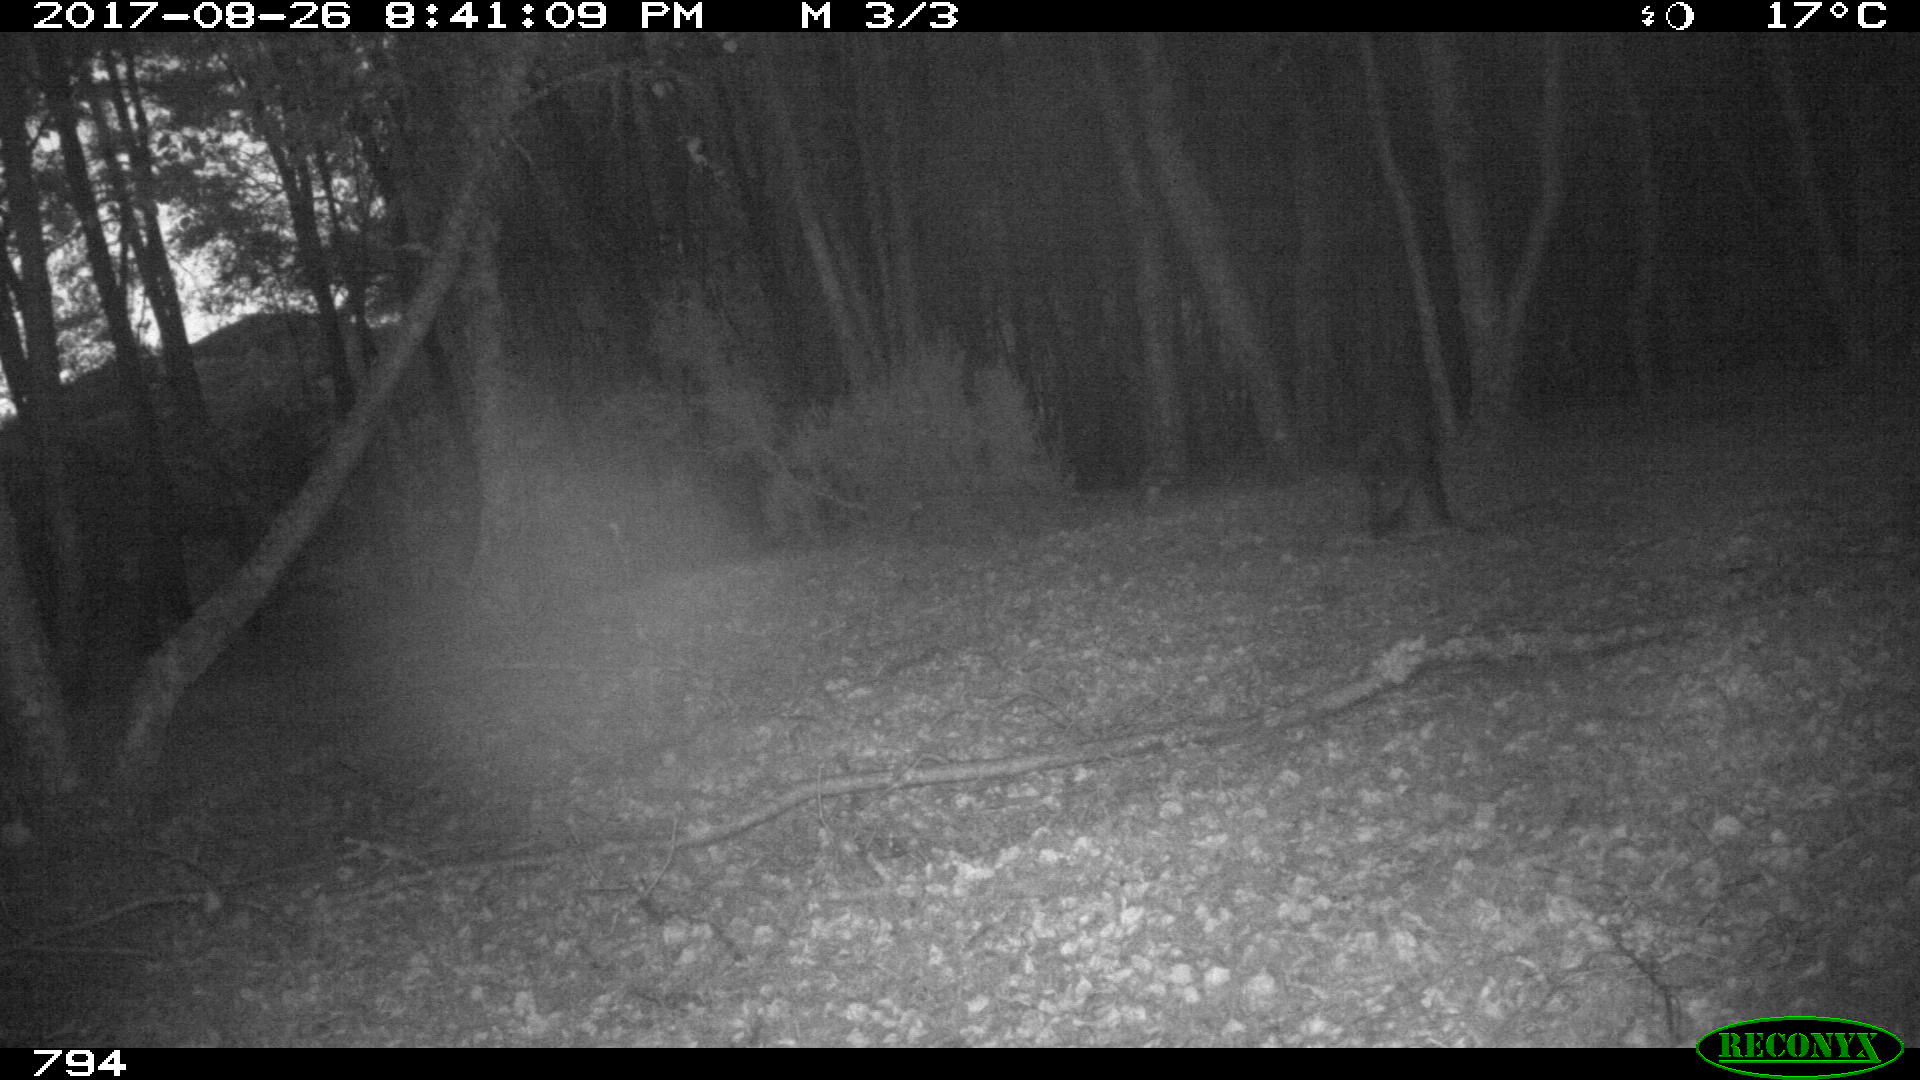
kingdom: Animalia
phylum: Chordata
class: Mammalia
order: Artiodactyla
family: Suidae
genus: Sus
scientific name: Sus scrofa
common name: Wild boar
